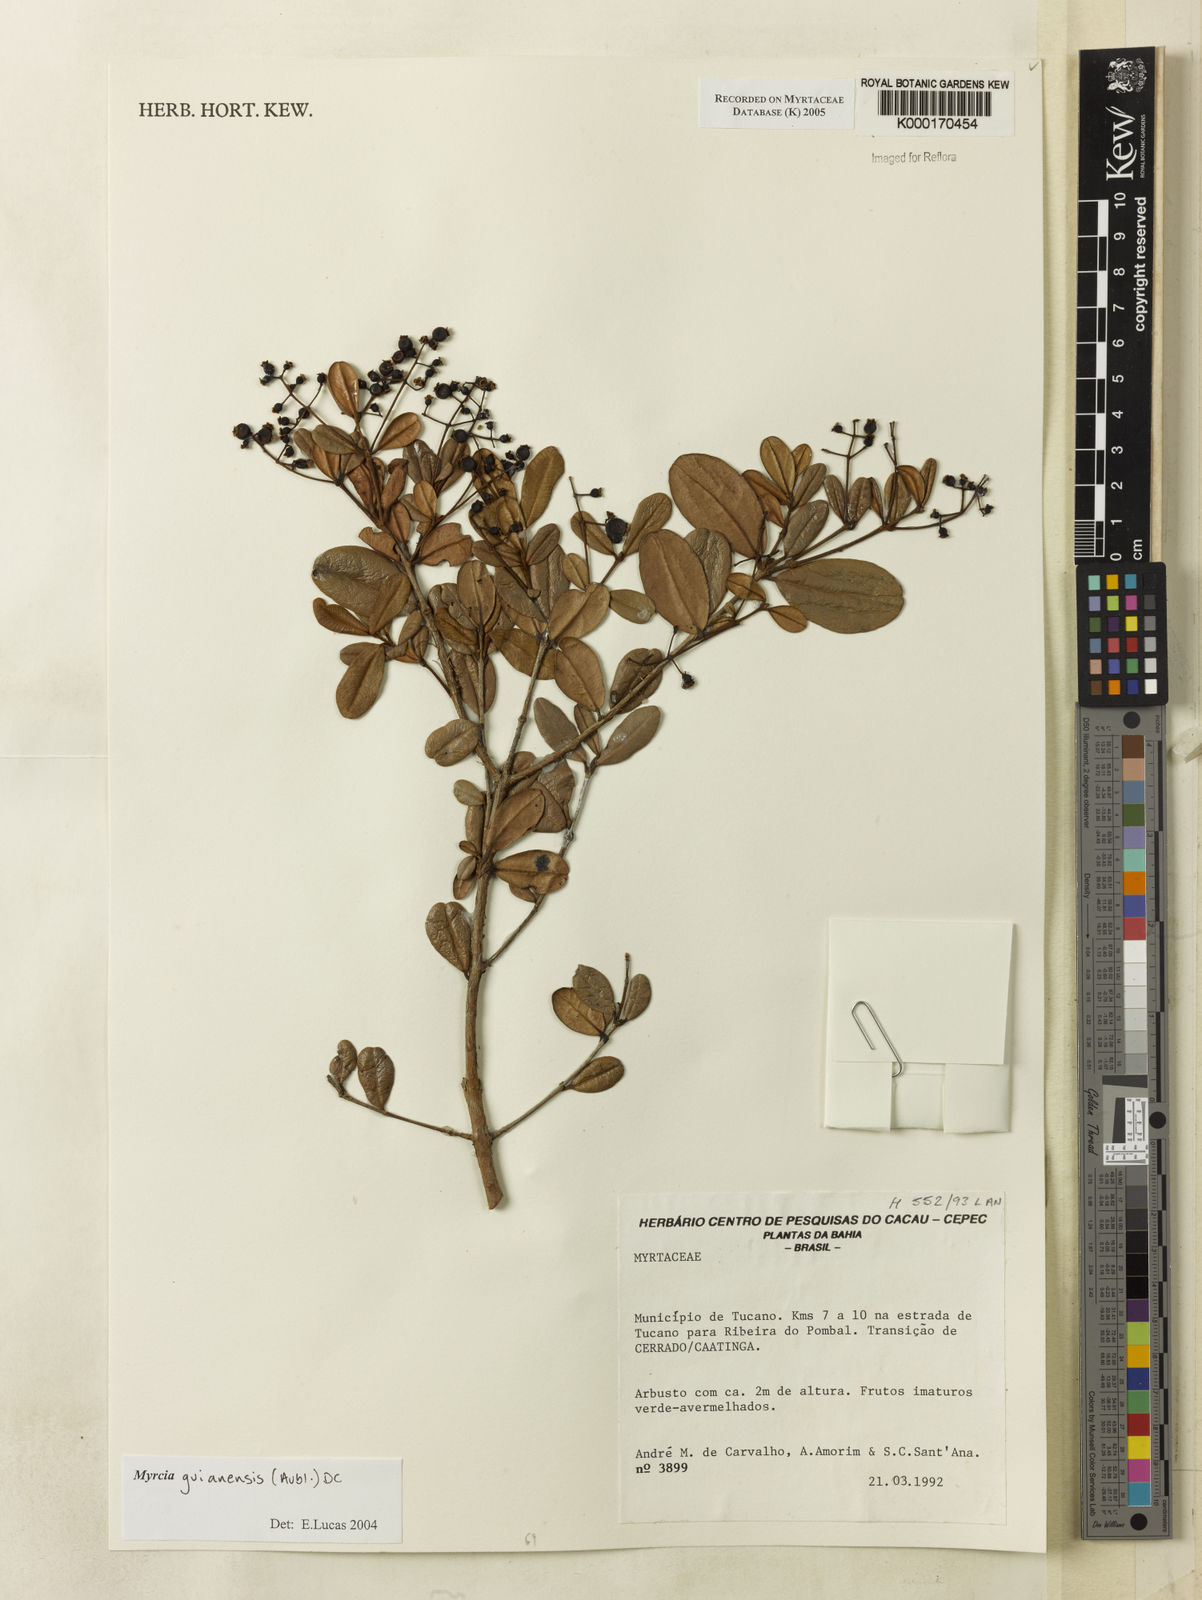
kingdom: Plantae
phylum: Tracheophyta
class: Magnoliopsida
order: Myrtales
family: Myrtaceae
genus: Myrcia
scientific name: Myrcia guianensis
